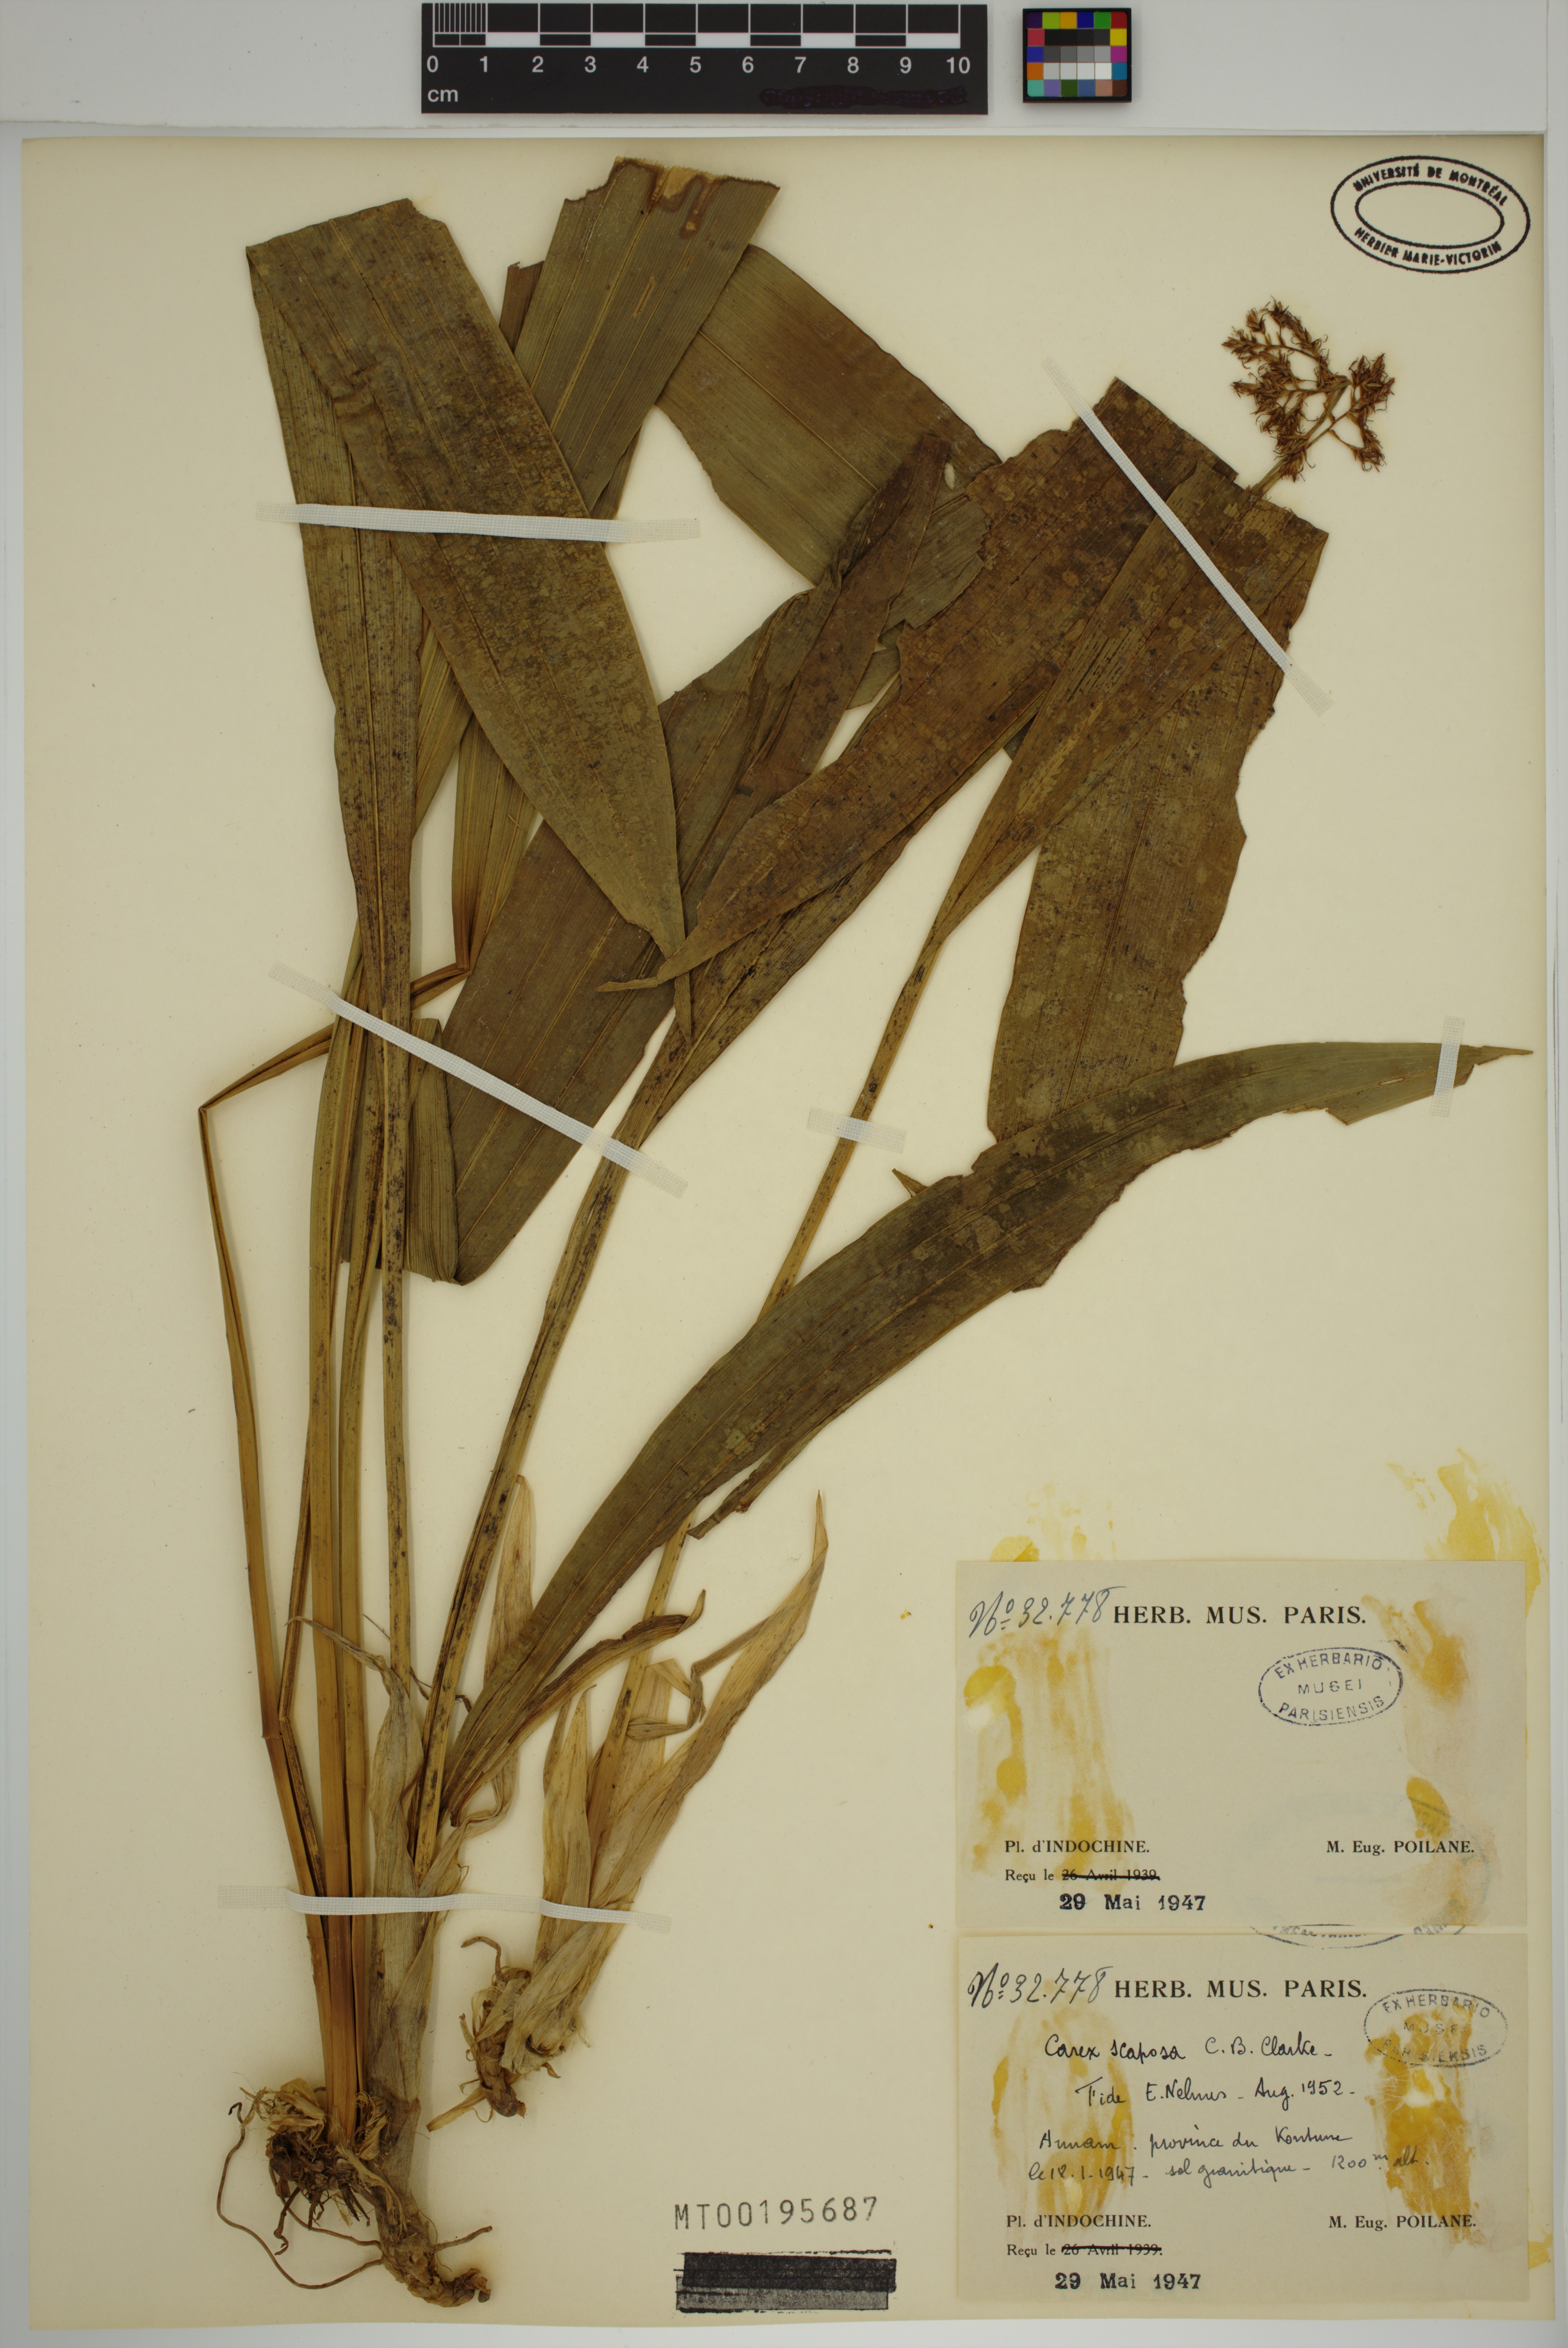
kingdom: Plantae
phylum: Tracheophyta
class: Liliopsida
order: Poales
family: Cyperaceae
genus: Carex
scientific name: Carex scaposa
